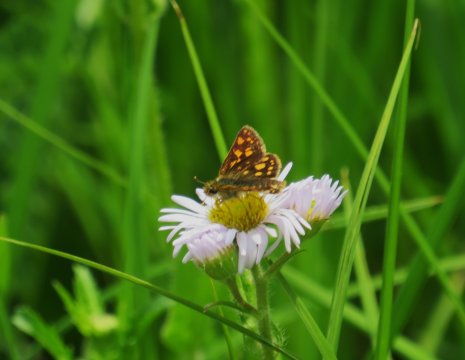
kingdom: Animalia
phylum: Arthropoda
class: Insecta
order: Lepidoptera
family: Hesperiidae
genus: Carterocephalus
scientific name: Carterocephalus palaemon
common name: Chequered Skipper
